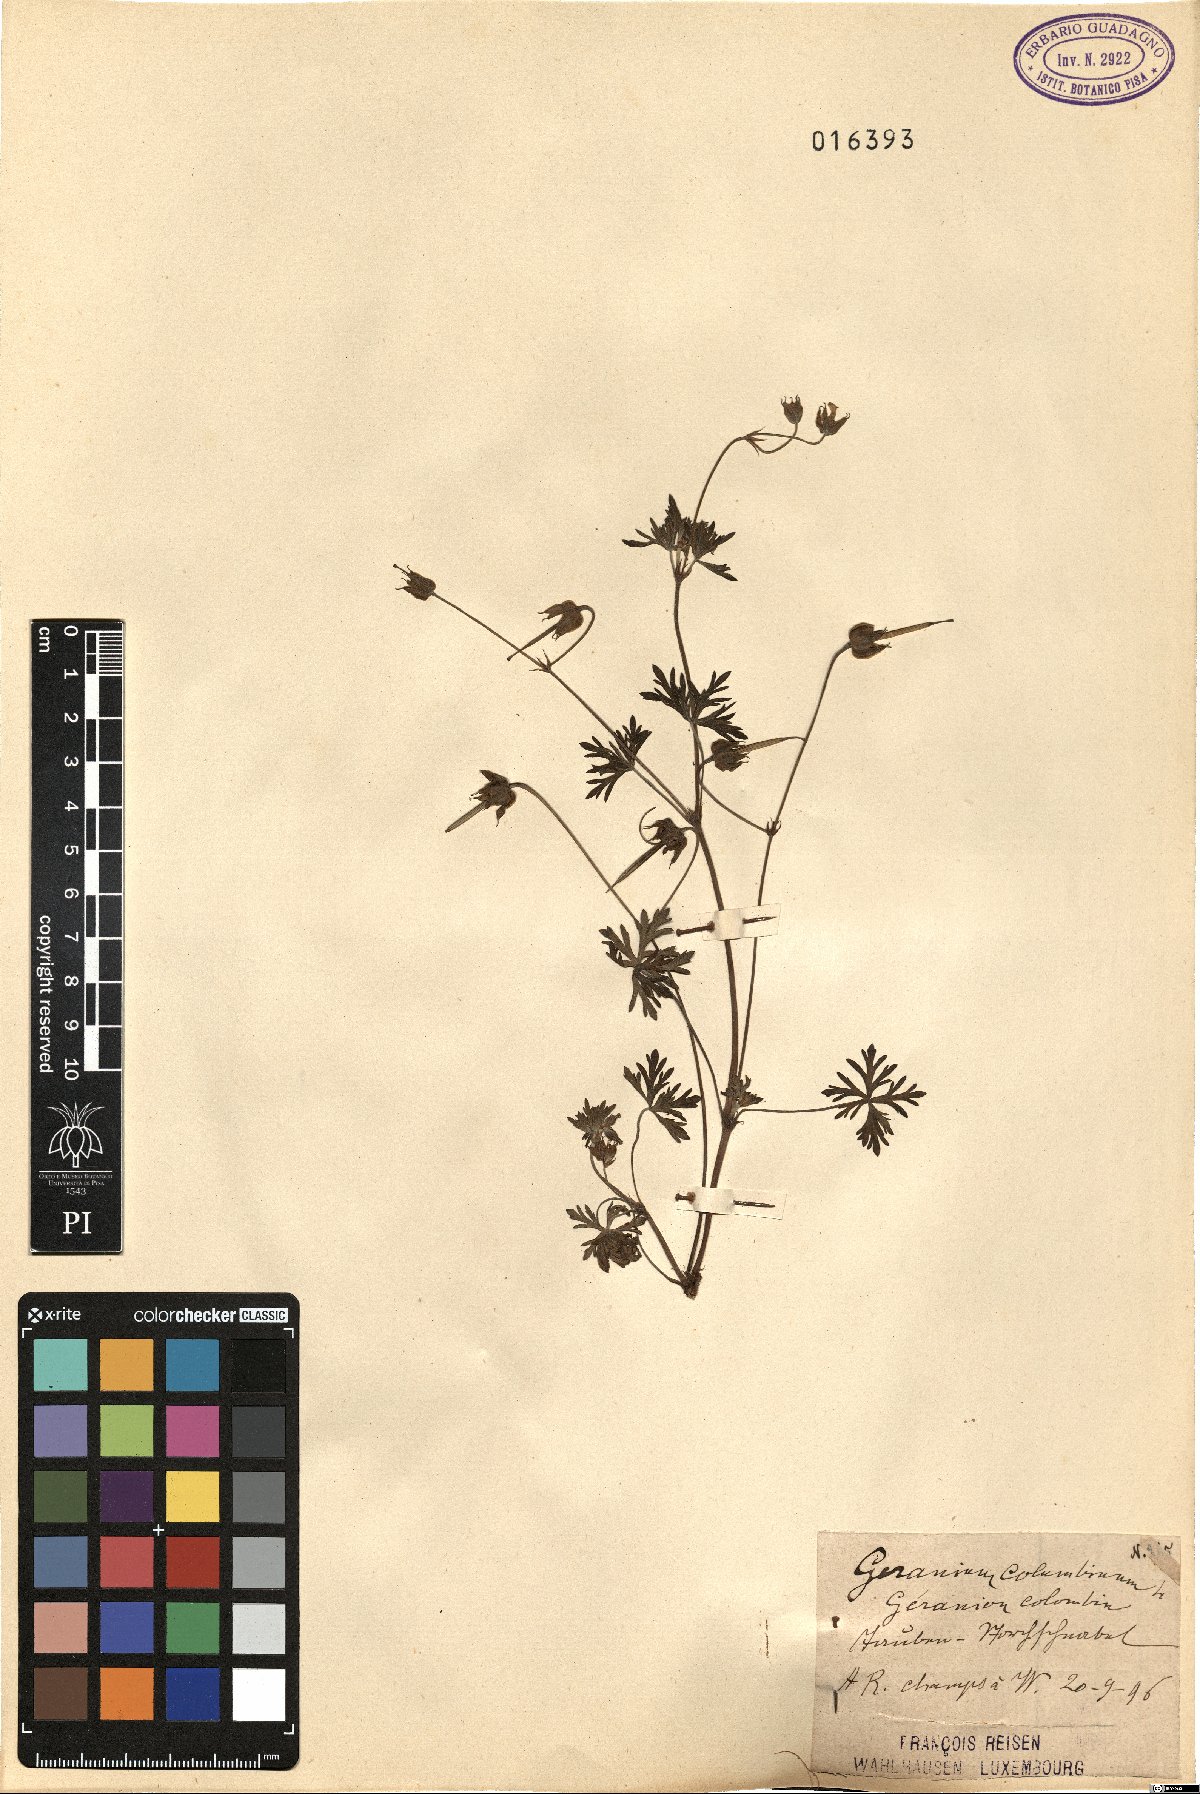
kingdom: Plantae
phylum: Tracheophyta
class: Magnoliopsida
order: Geraniales
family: Geraniaceae
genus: Geranium
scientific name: Geranium columbinum
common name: Long-stalked crane's-bill
